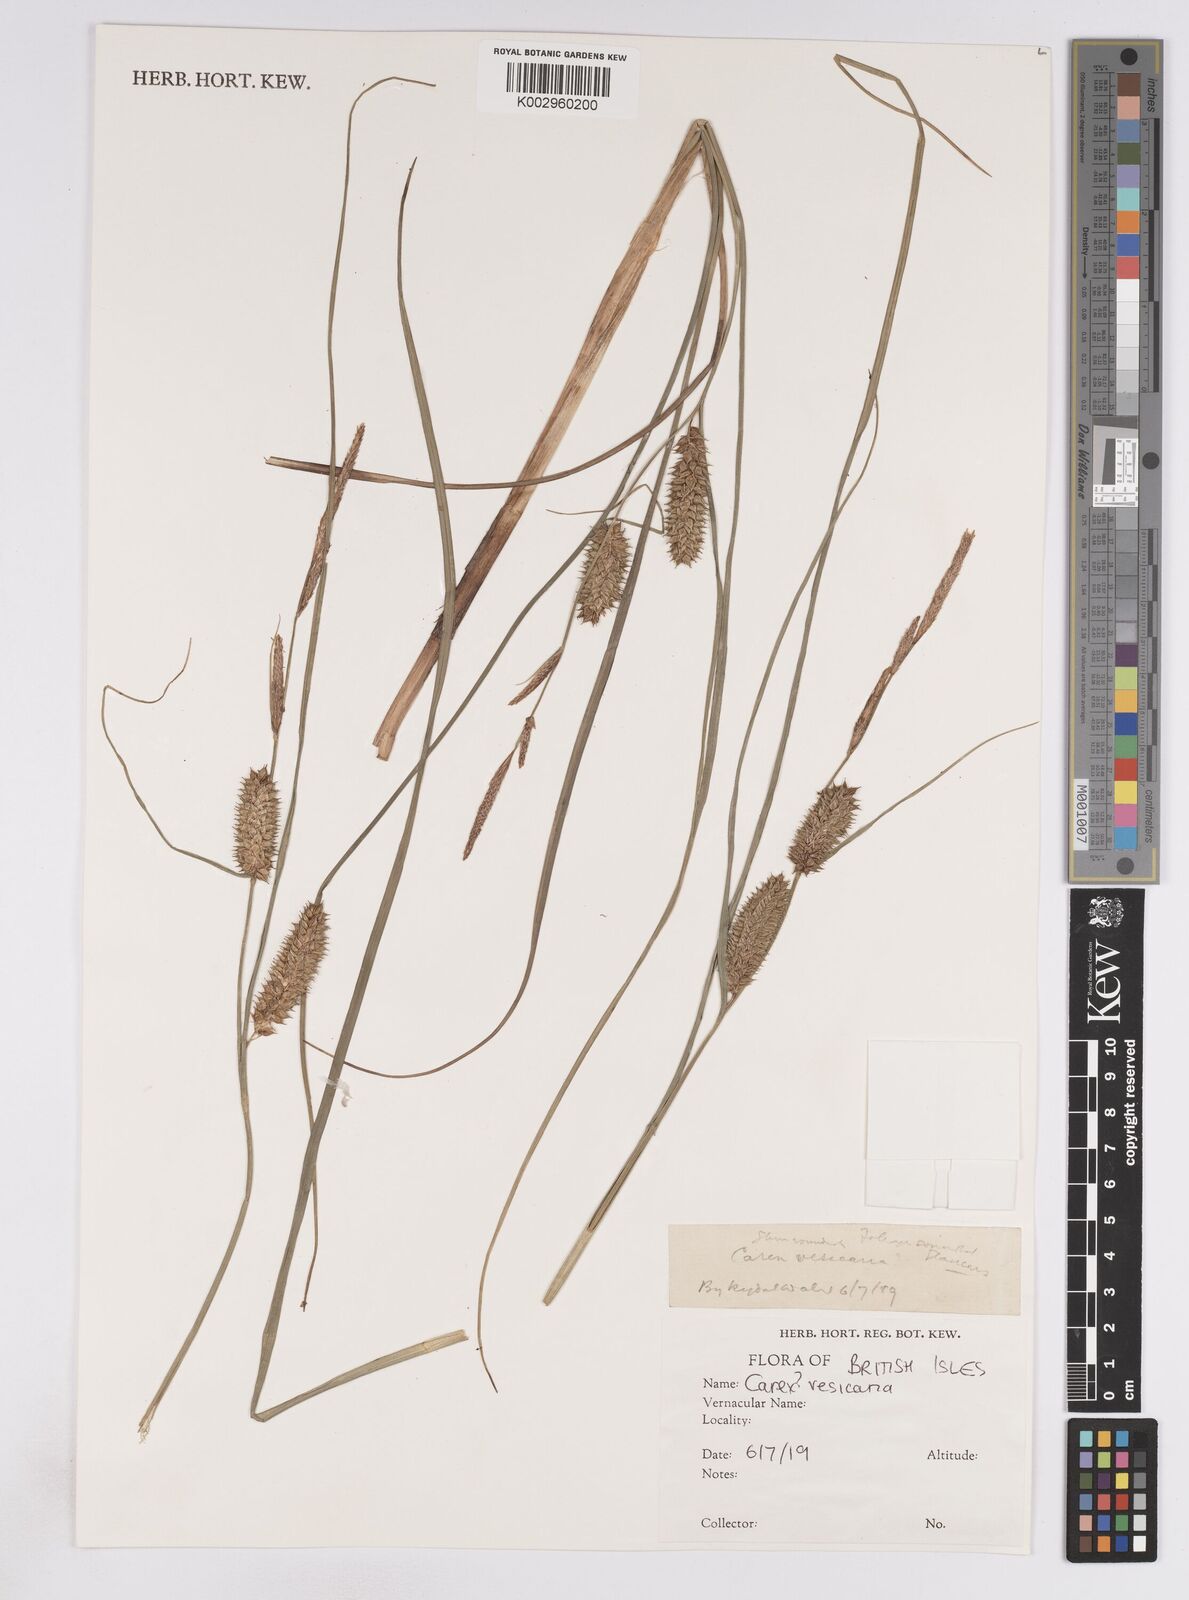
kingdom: Plantae
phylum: Tracheophyta
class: Liliopsida
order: Poales
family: Cyperaceae
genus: Carex
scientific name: Carex vesicaria
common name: Bladder-sedge
